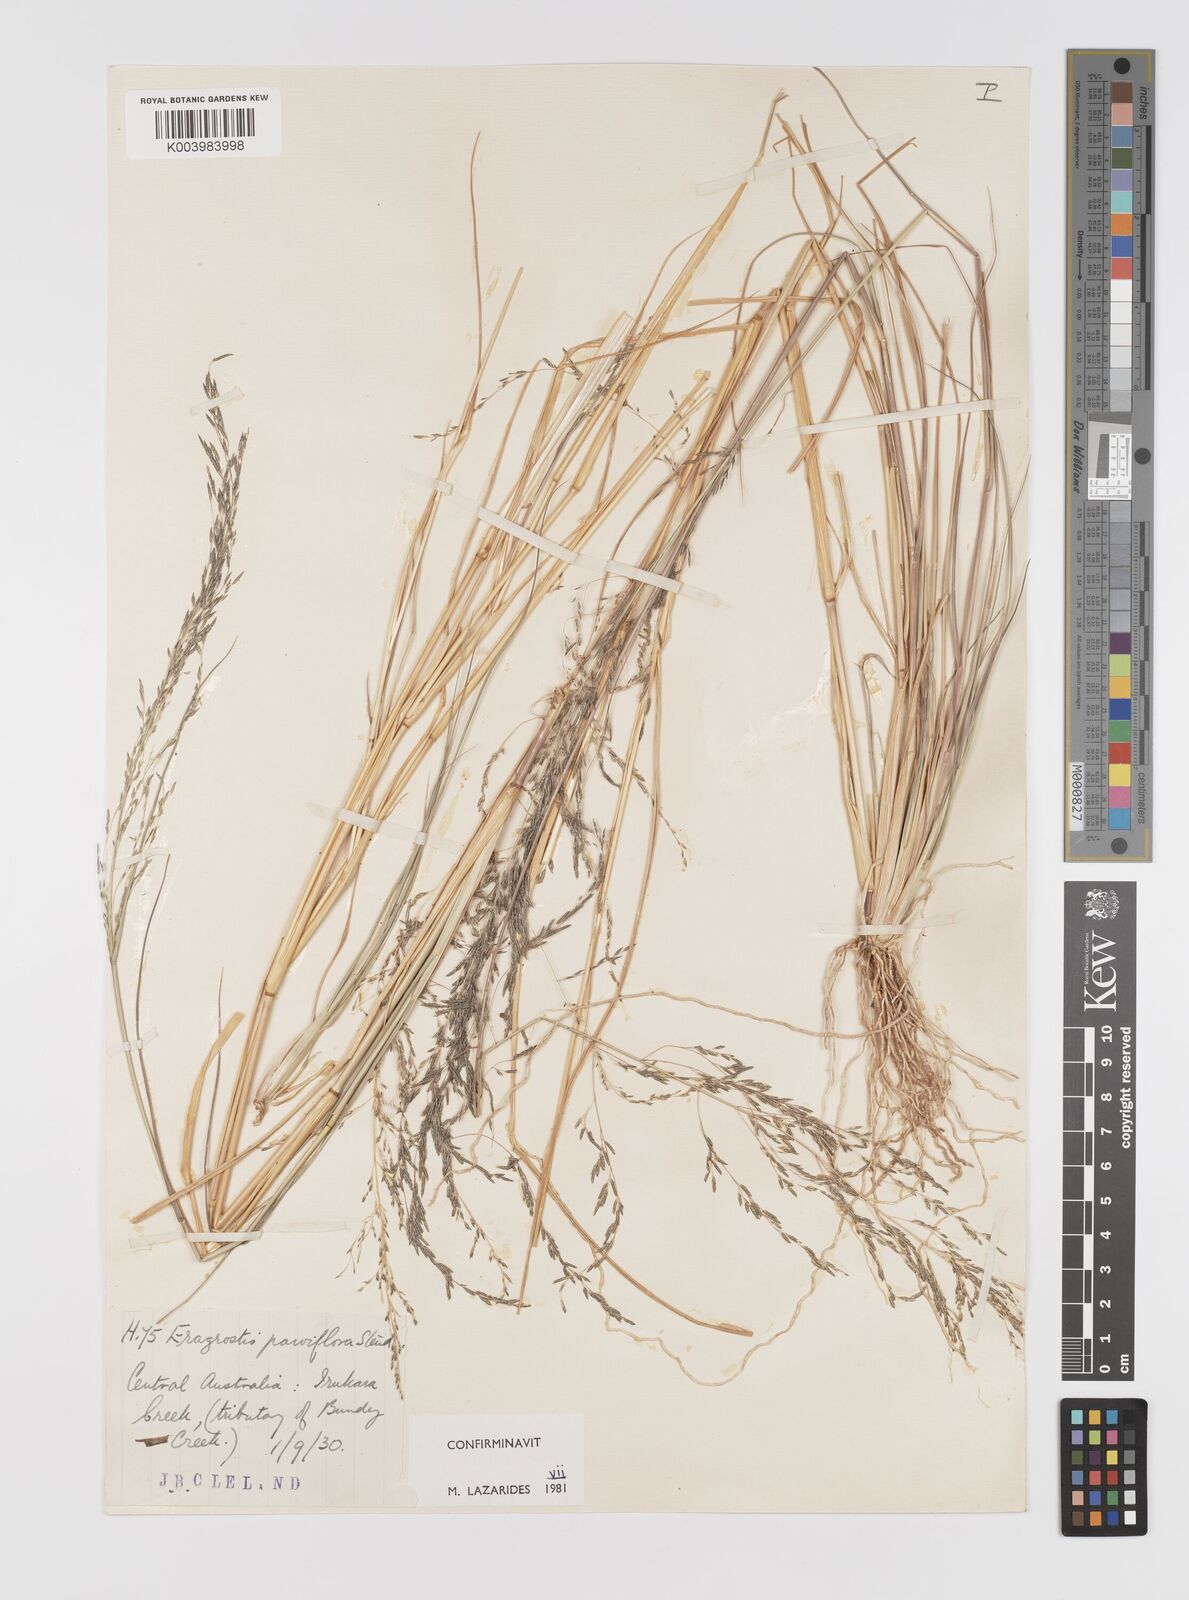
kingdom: Plantae
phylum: Tracheophyta
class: Liliopsida
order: Poales
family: Poaceae
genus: Eragrostis
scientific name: Eragrostis parviflora
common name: Weeping love-grass
